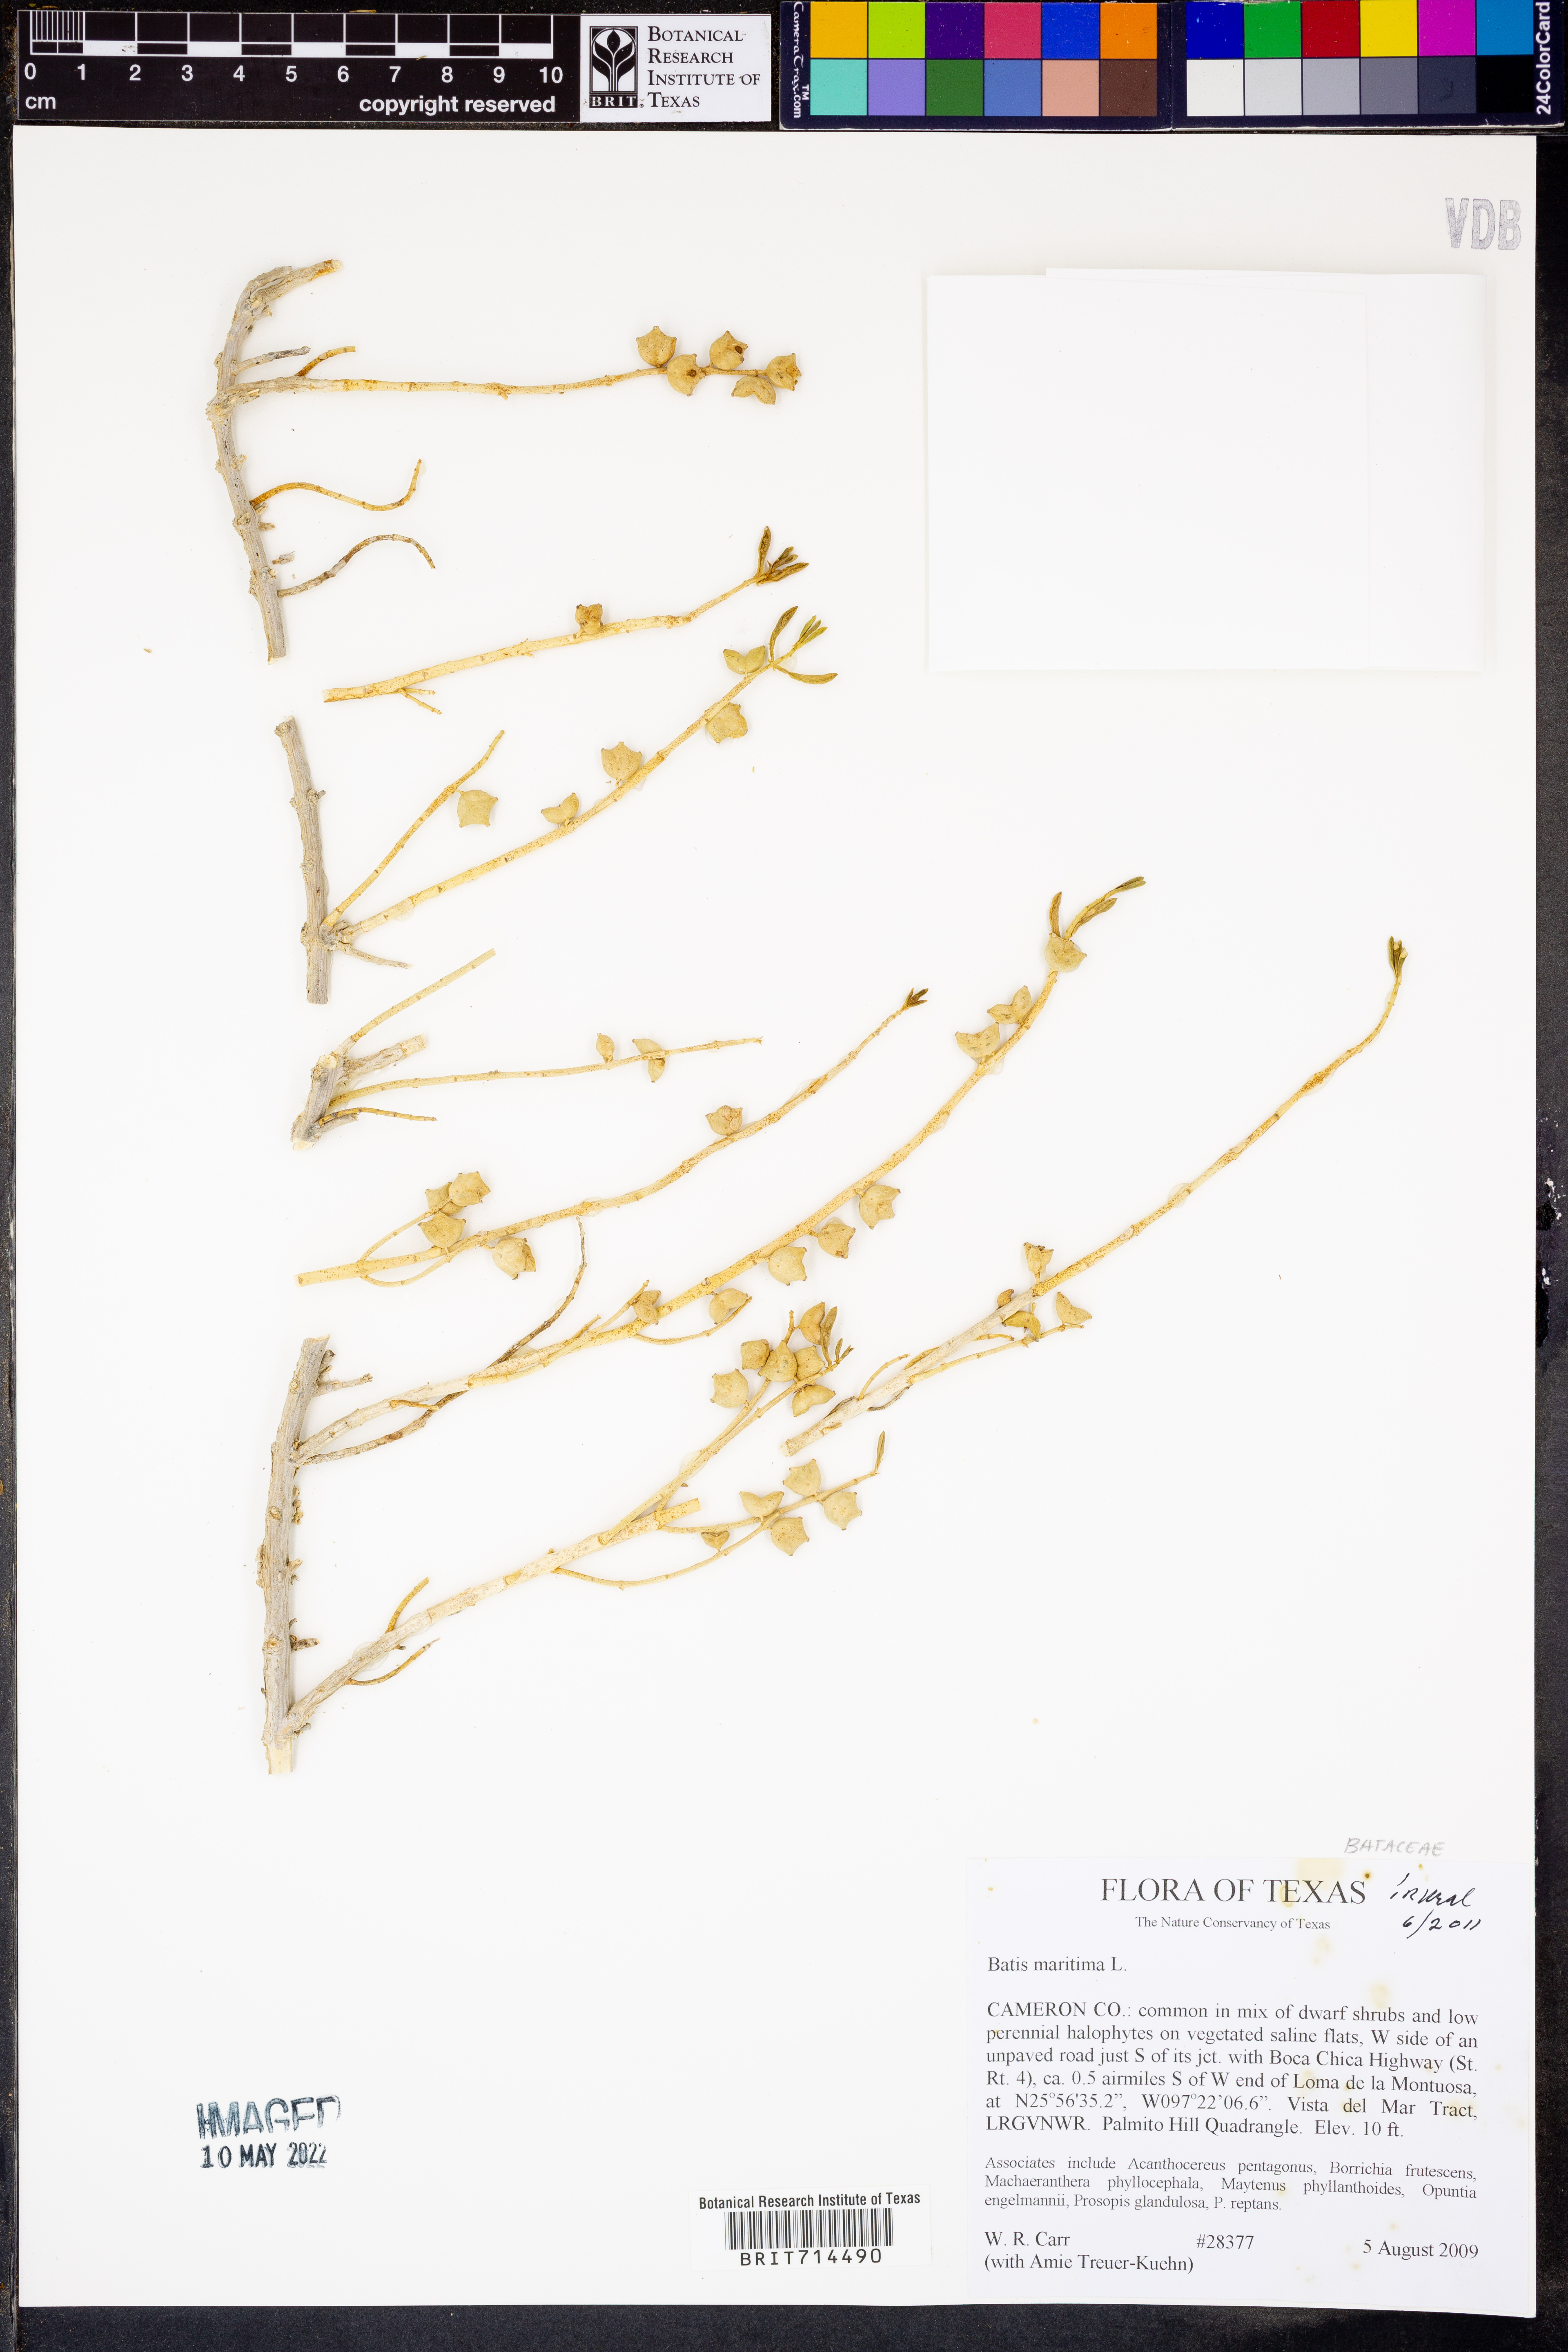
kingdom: Plantae
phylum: Tracheophyta
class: Magnoliopsida
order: Brassicales
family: Bataceae
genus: Batis
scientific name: Batis maritima
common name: Turtleweed
